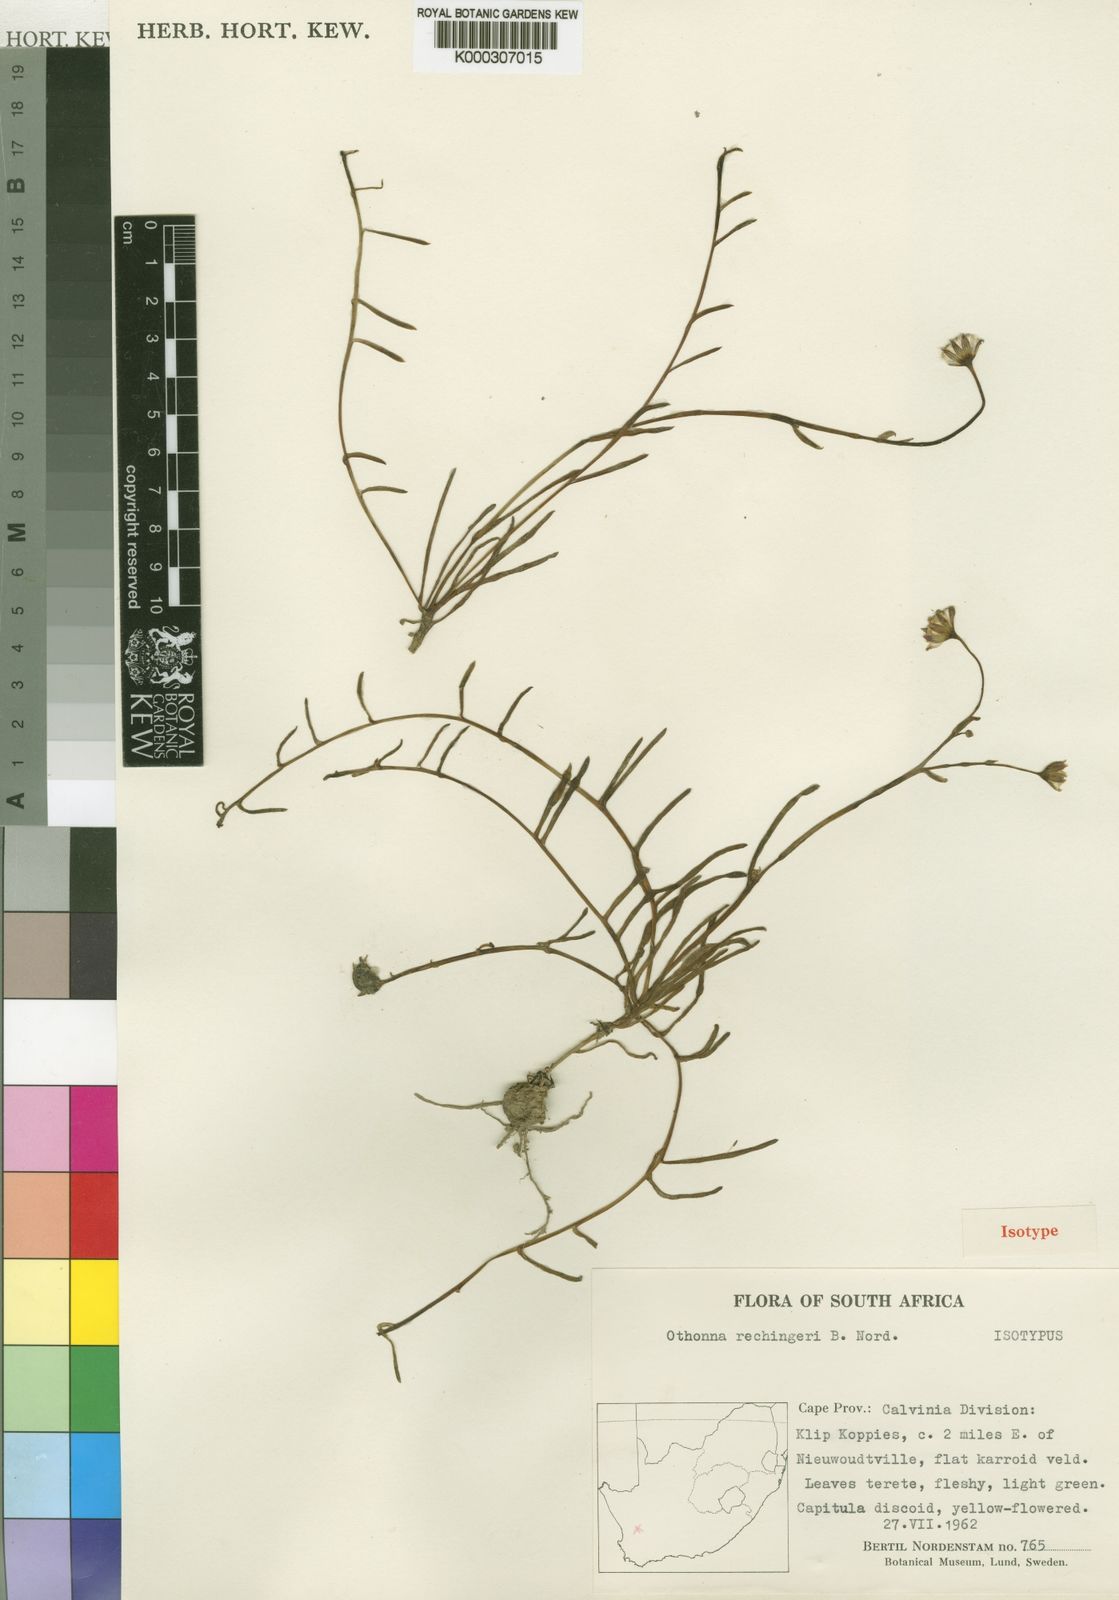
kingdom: Plantae
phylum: Tracheophyta
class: Magnoliopsida
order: Asterales
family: Asteraceae
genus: Crassothonna
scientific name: Crassothonna rechingeri
